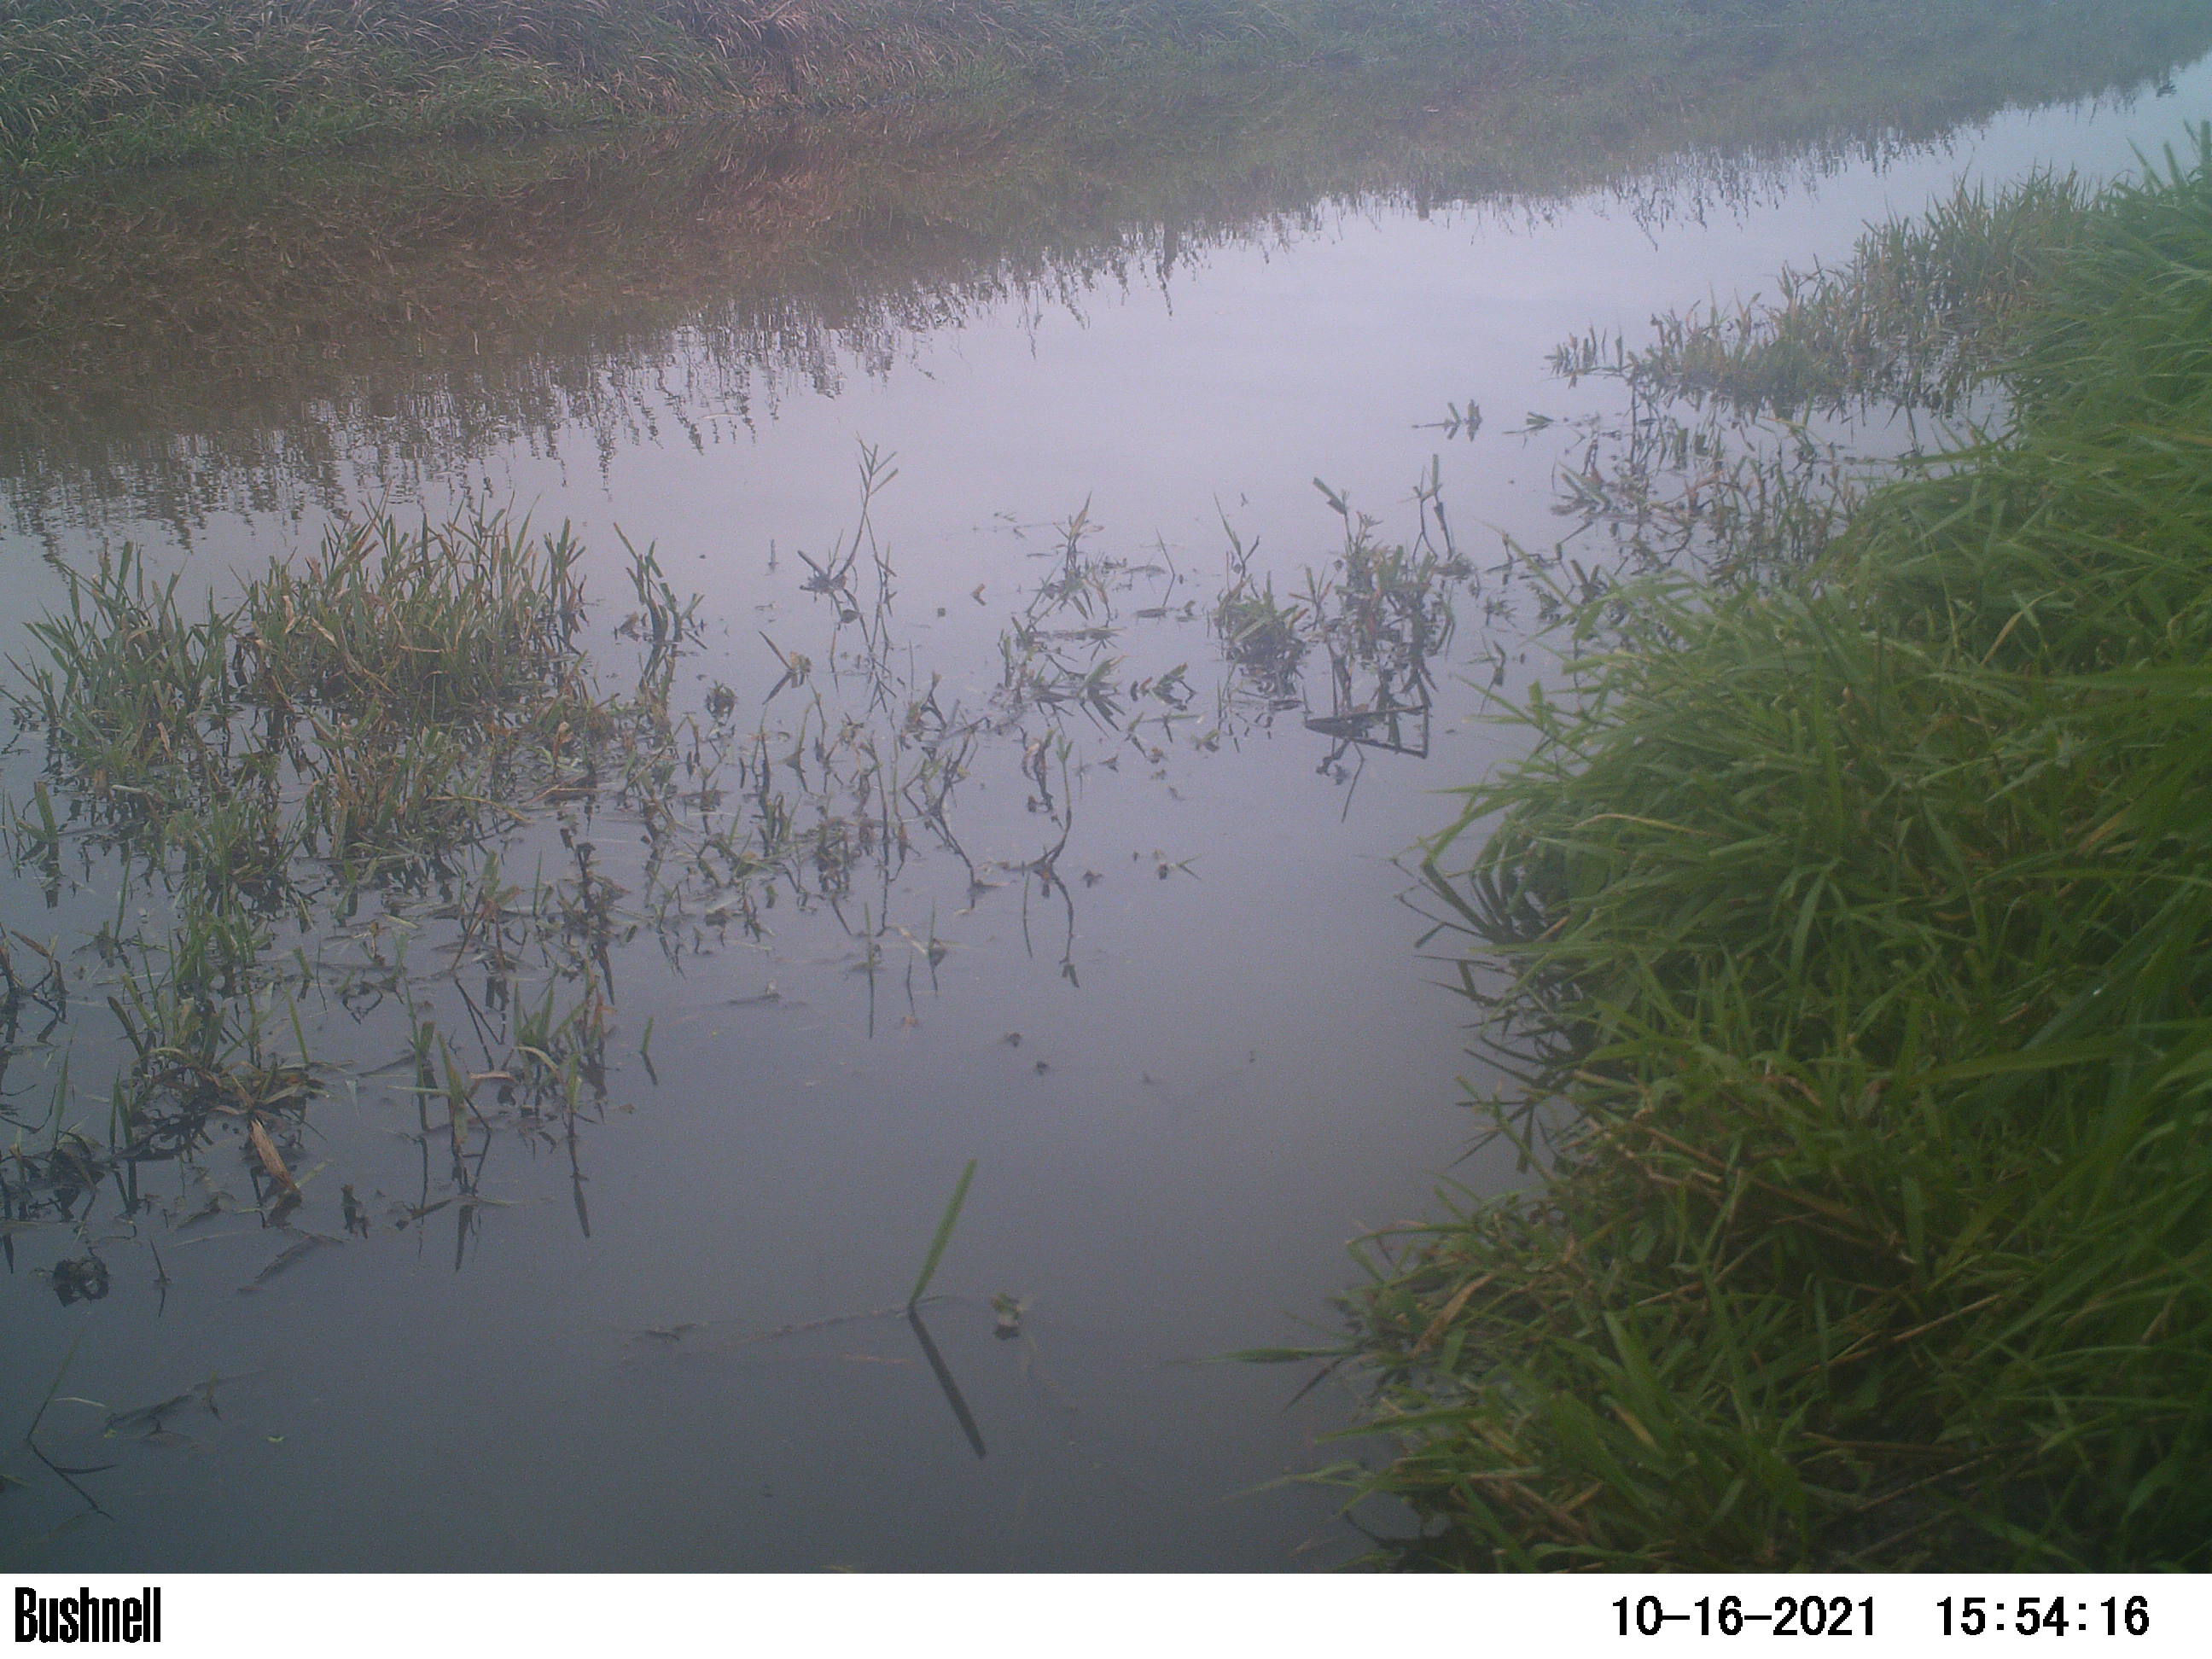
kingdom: Animalia
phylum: Chordata
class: Aves
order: Anseriformes
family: Anatidae
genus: Anas
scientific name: Anas
